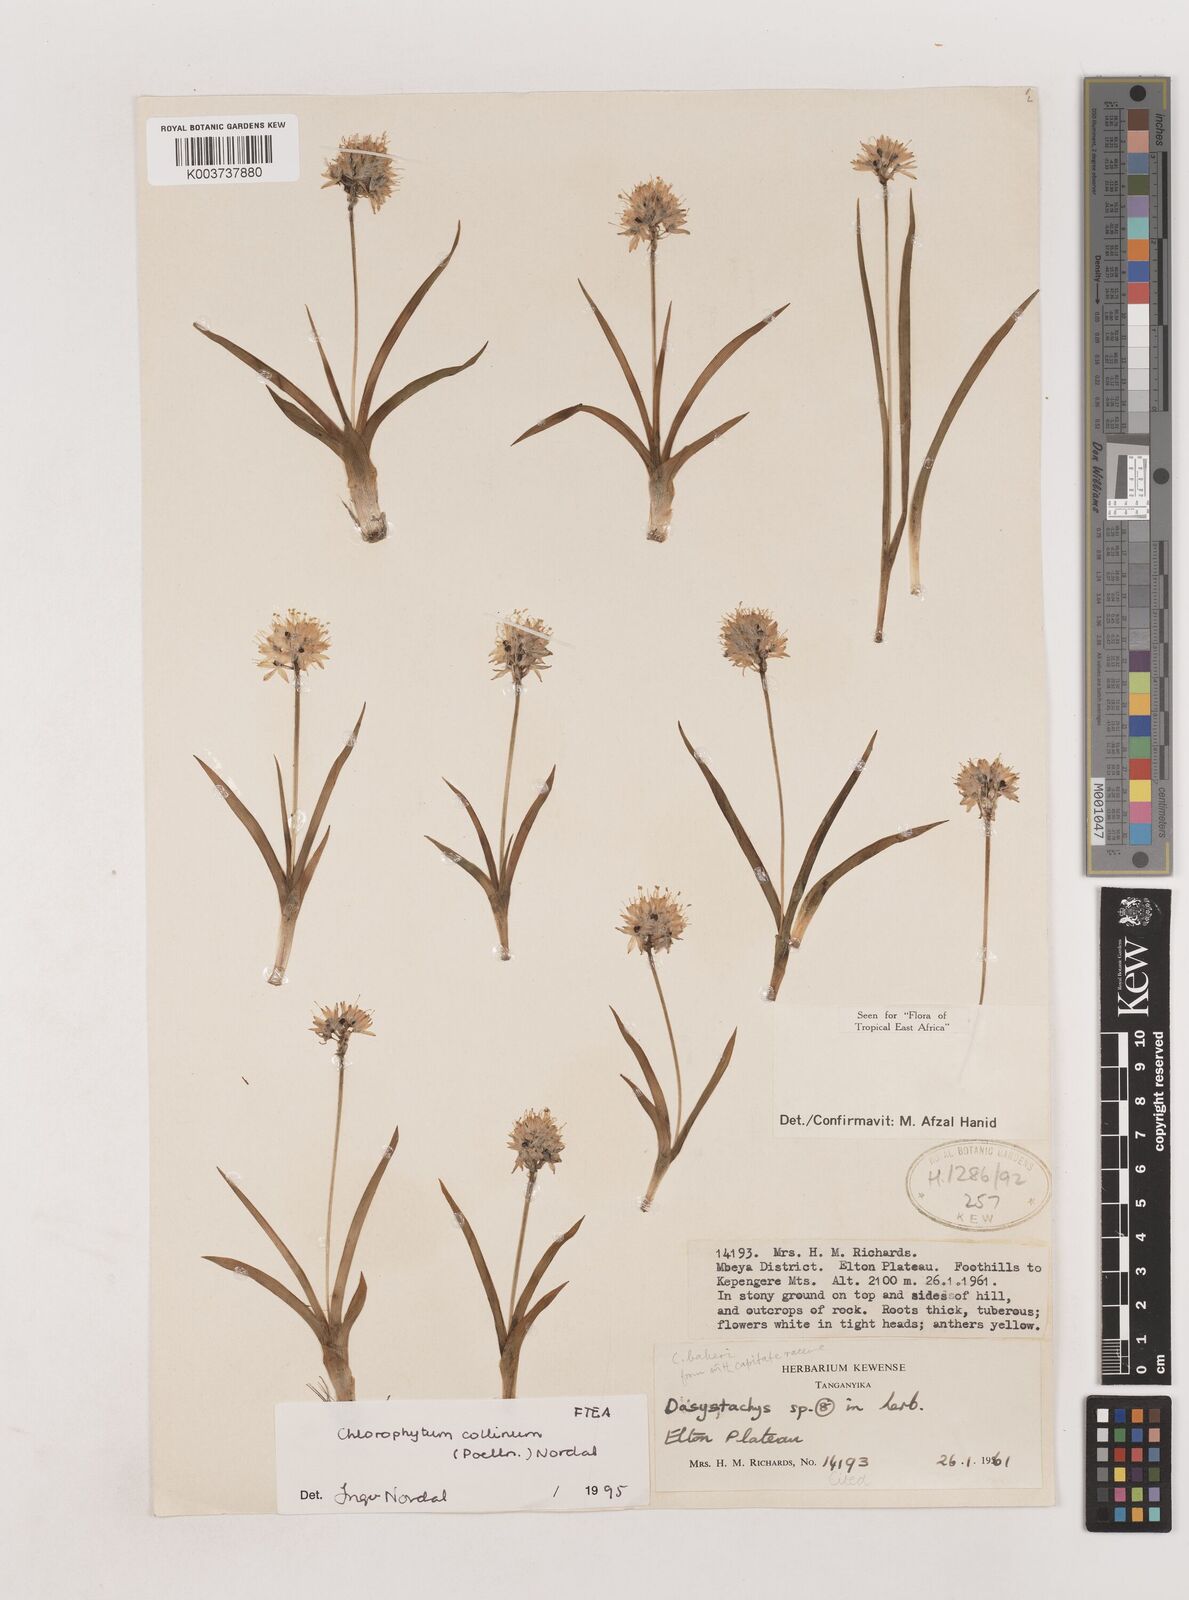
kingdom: Plantae
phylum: Tracheophyta
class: Liliopsida
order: Asparagales
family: Asparagaceae
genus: Chlorophytum
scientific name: Chlorophytum collinum
